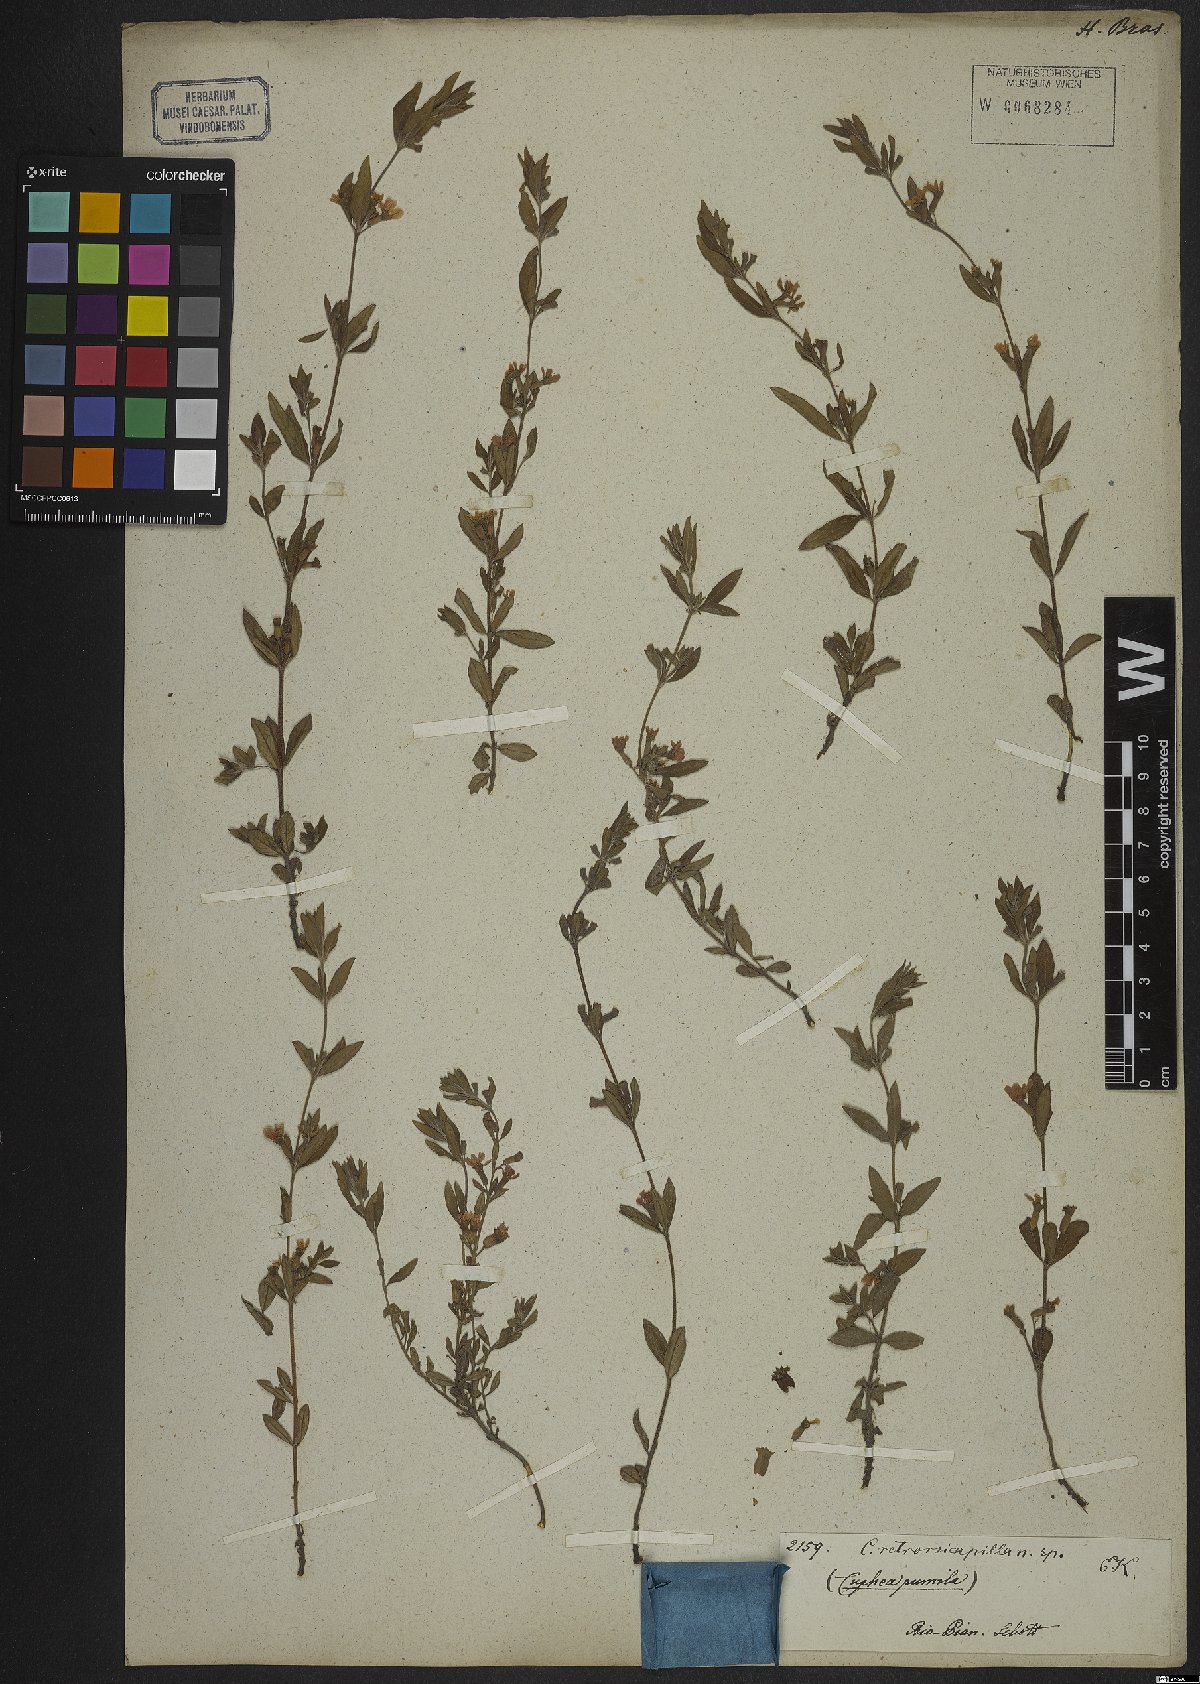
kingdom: Plantae
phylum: Tracheophyta
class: Magnoliopsida
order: Myrtales
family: Lythraceae
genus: Cuphea
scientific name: Cuphea retrorsicapilla
